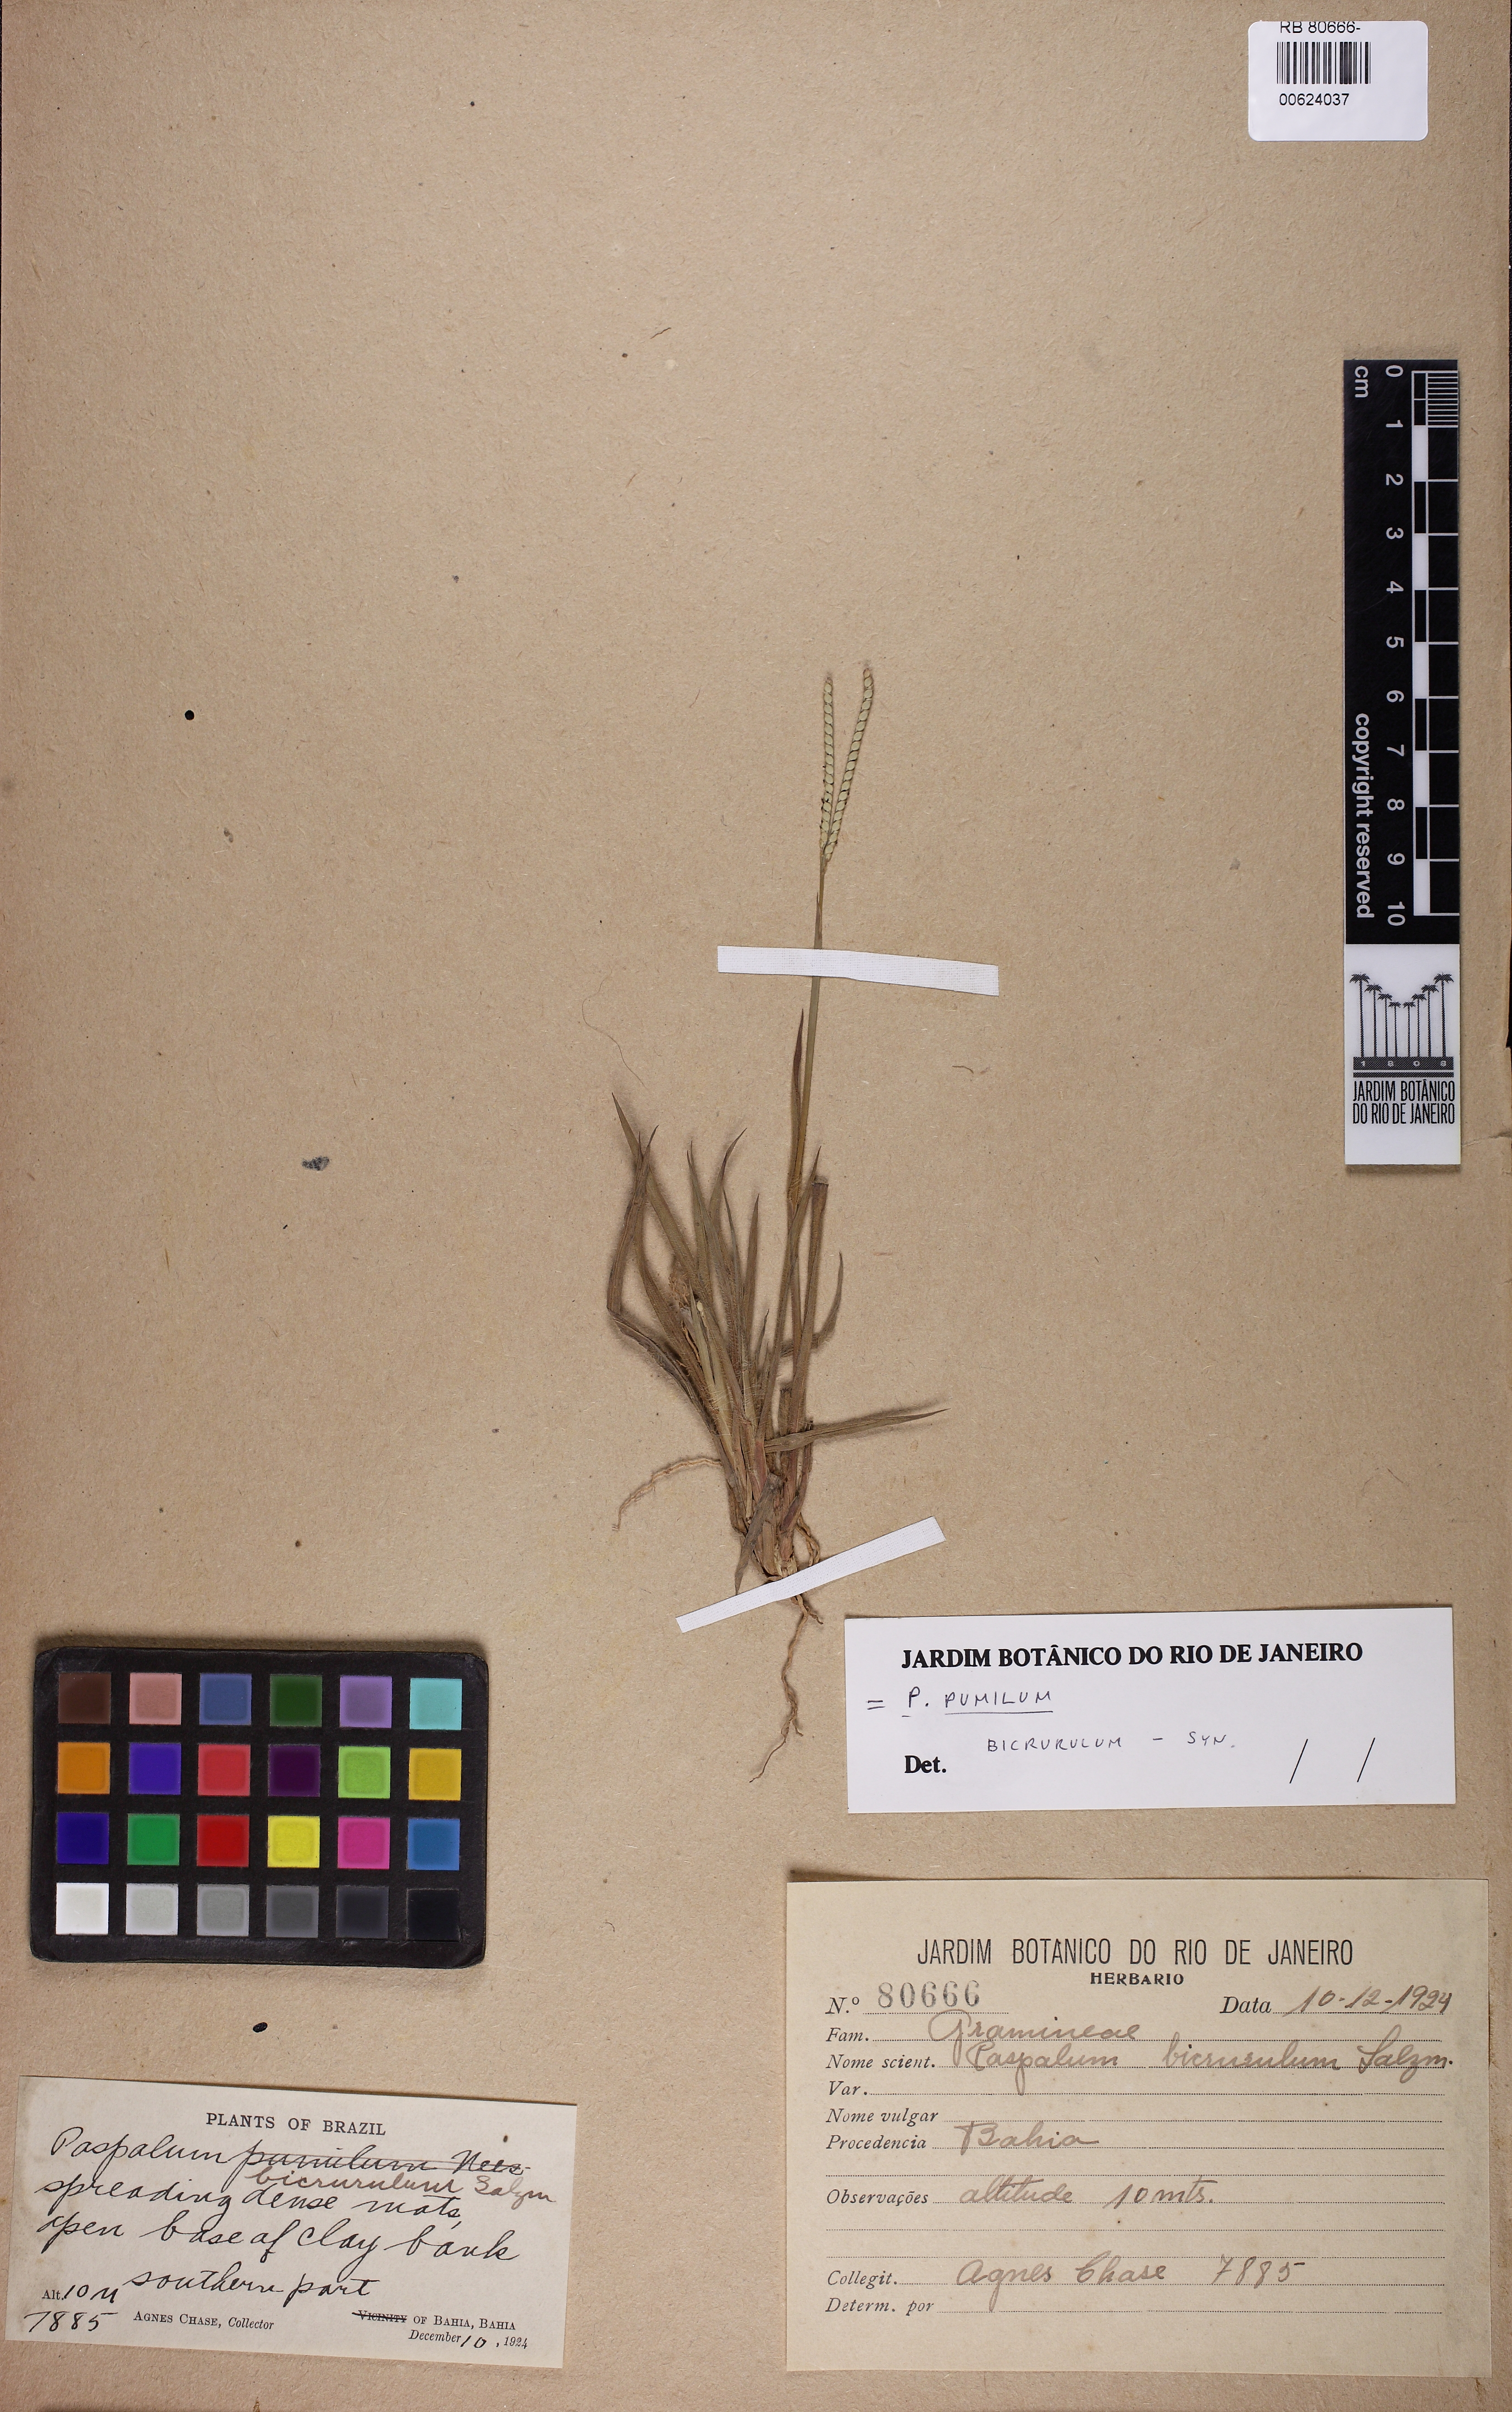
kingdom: Plantae
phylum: Tracheophyta
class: Liliopsida
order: Poales
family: Poaceae
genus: Paspalum
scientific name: Paspalum pumilum
